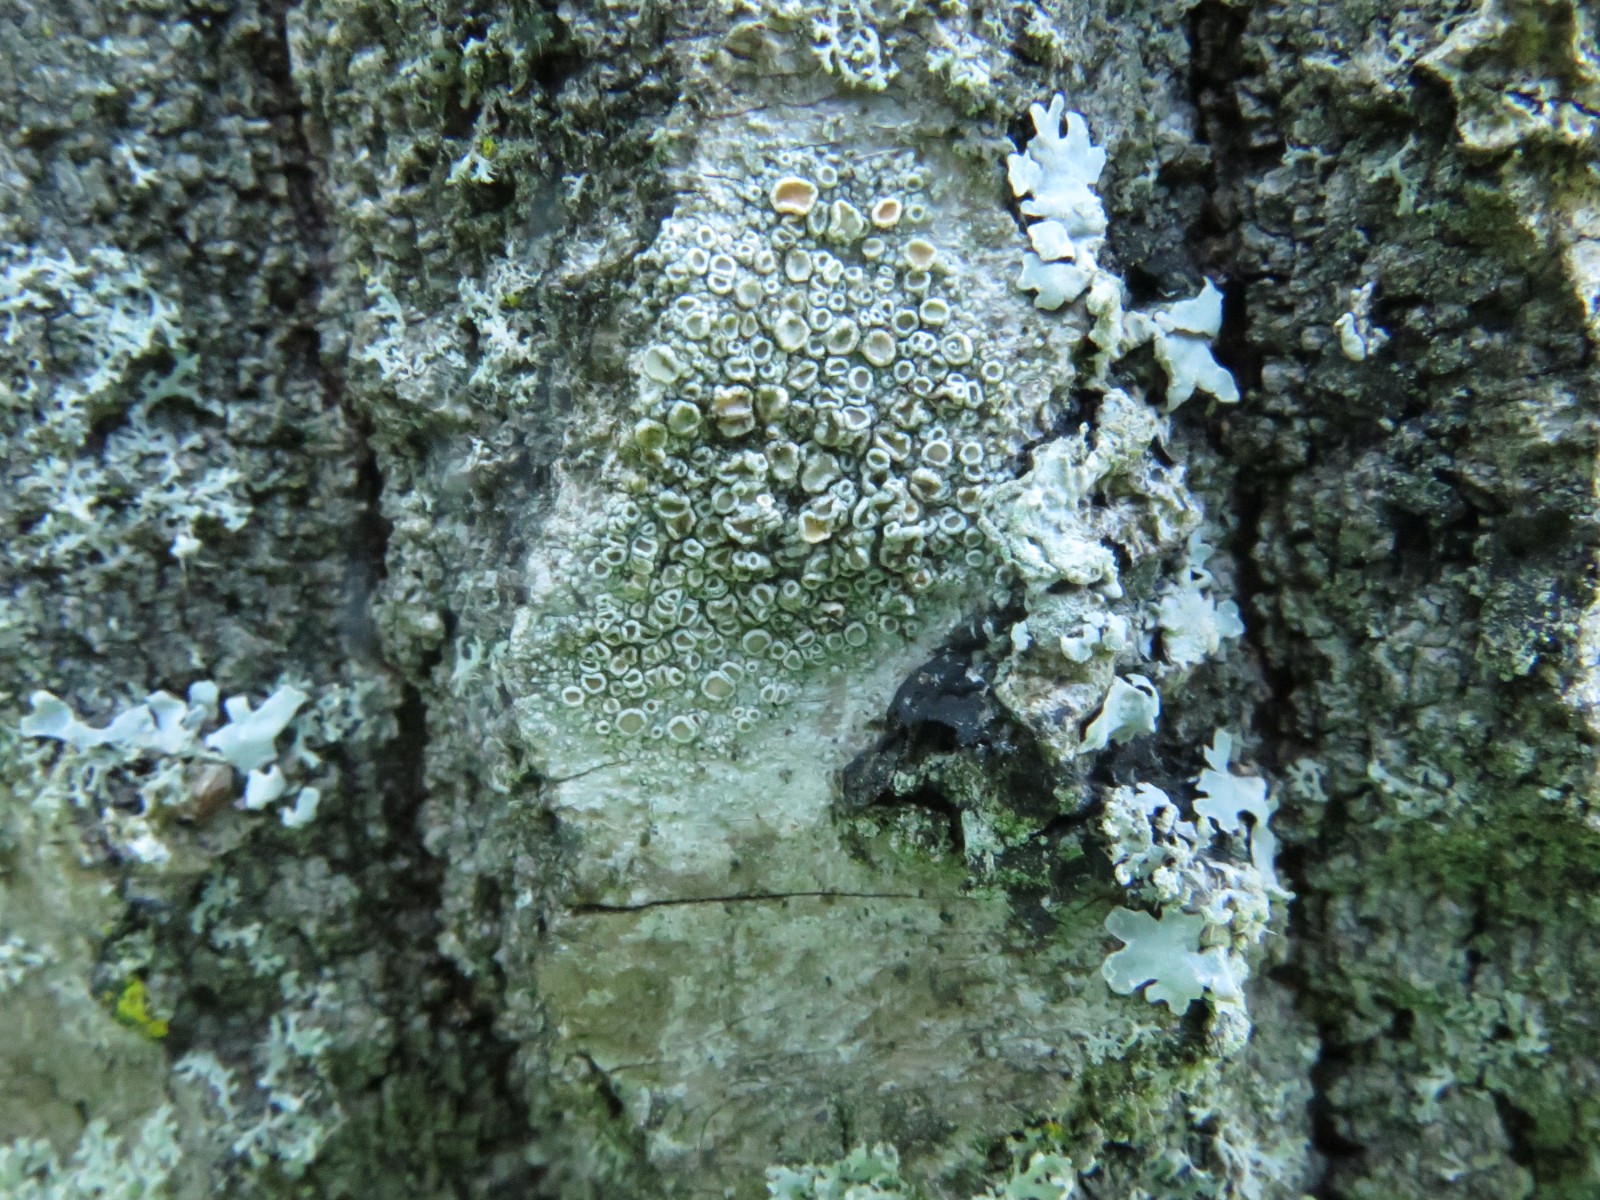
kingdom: Fungi
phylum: Ascomycota
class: Lecanoromycetes
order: Lecanorales
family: Lecanoraceae
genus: Glaucomaria
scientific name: Glaucomaria carpinea
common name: hviddugget kantskivelav
